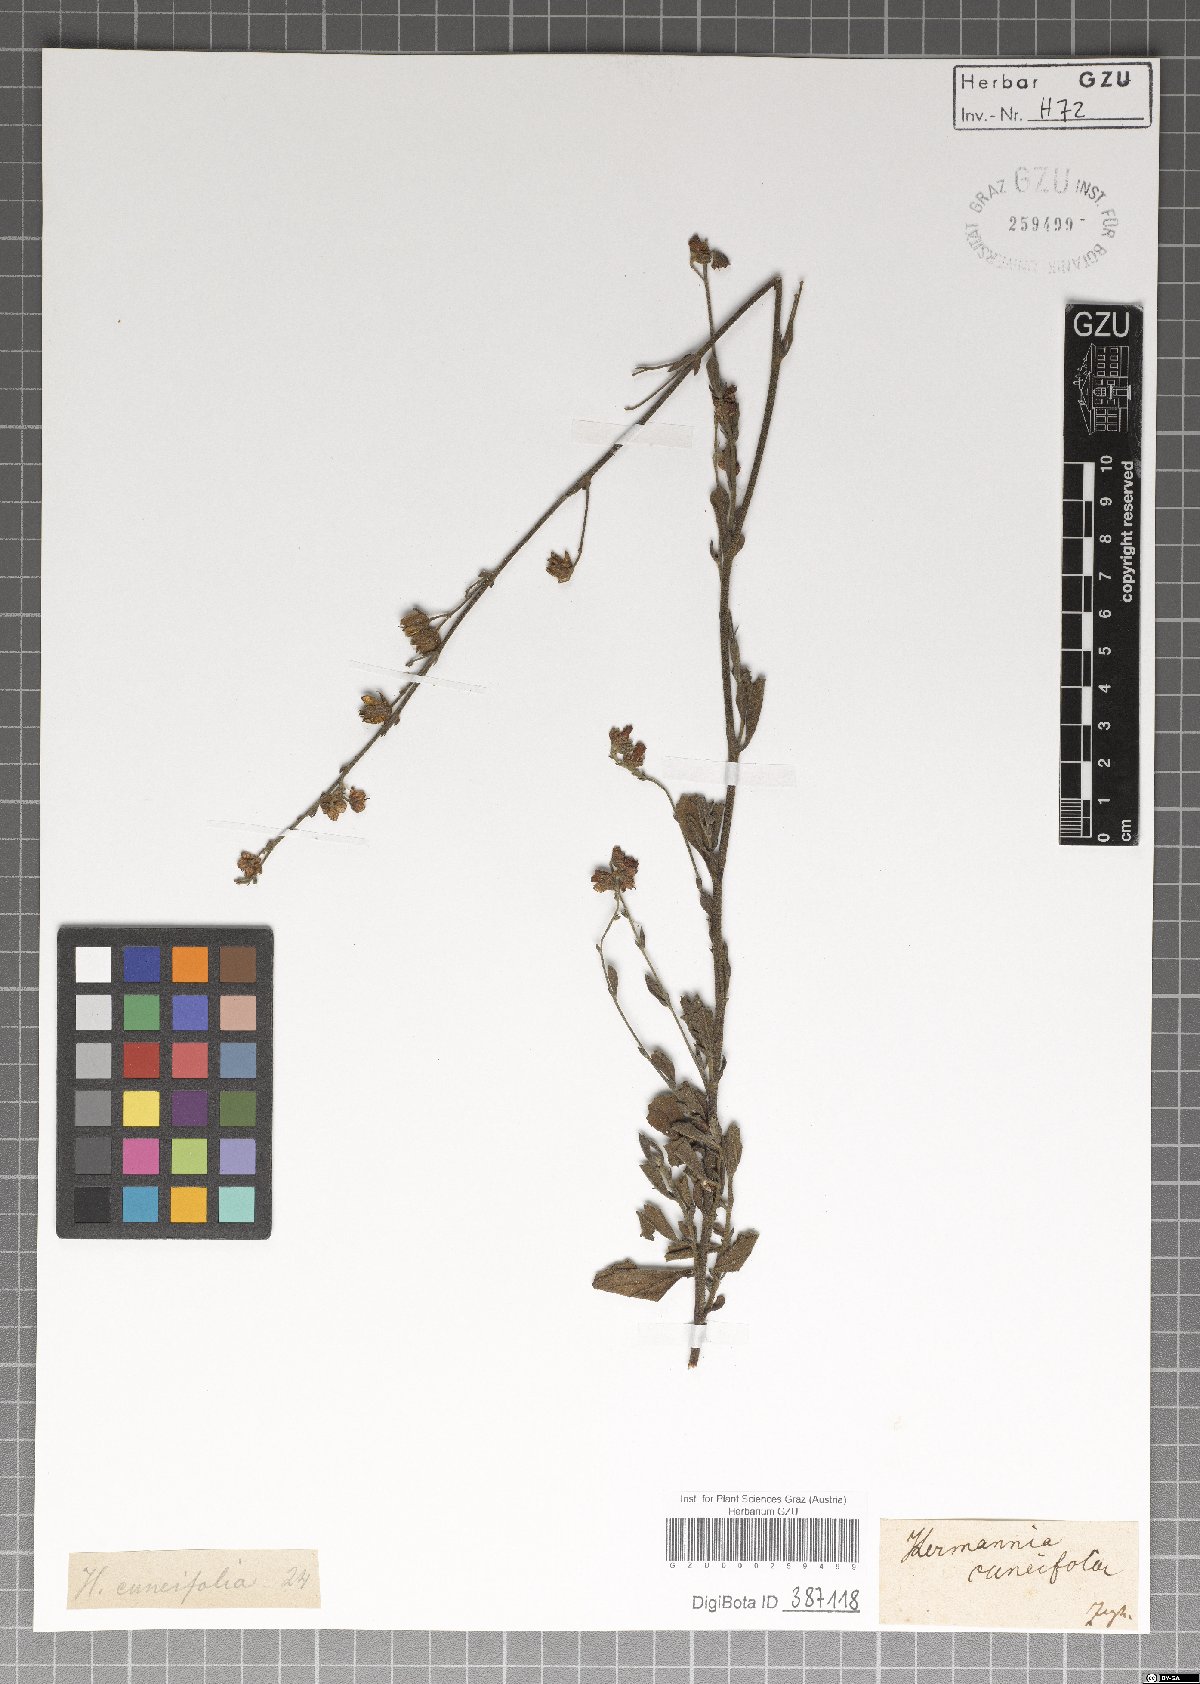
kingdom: Plantae
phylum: Tracheophyta
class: Magnoliopsida
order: Malvales
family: Malvaceae
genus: Hermannia
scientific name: Hermannia cuneifolia
